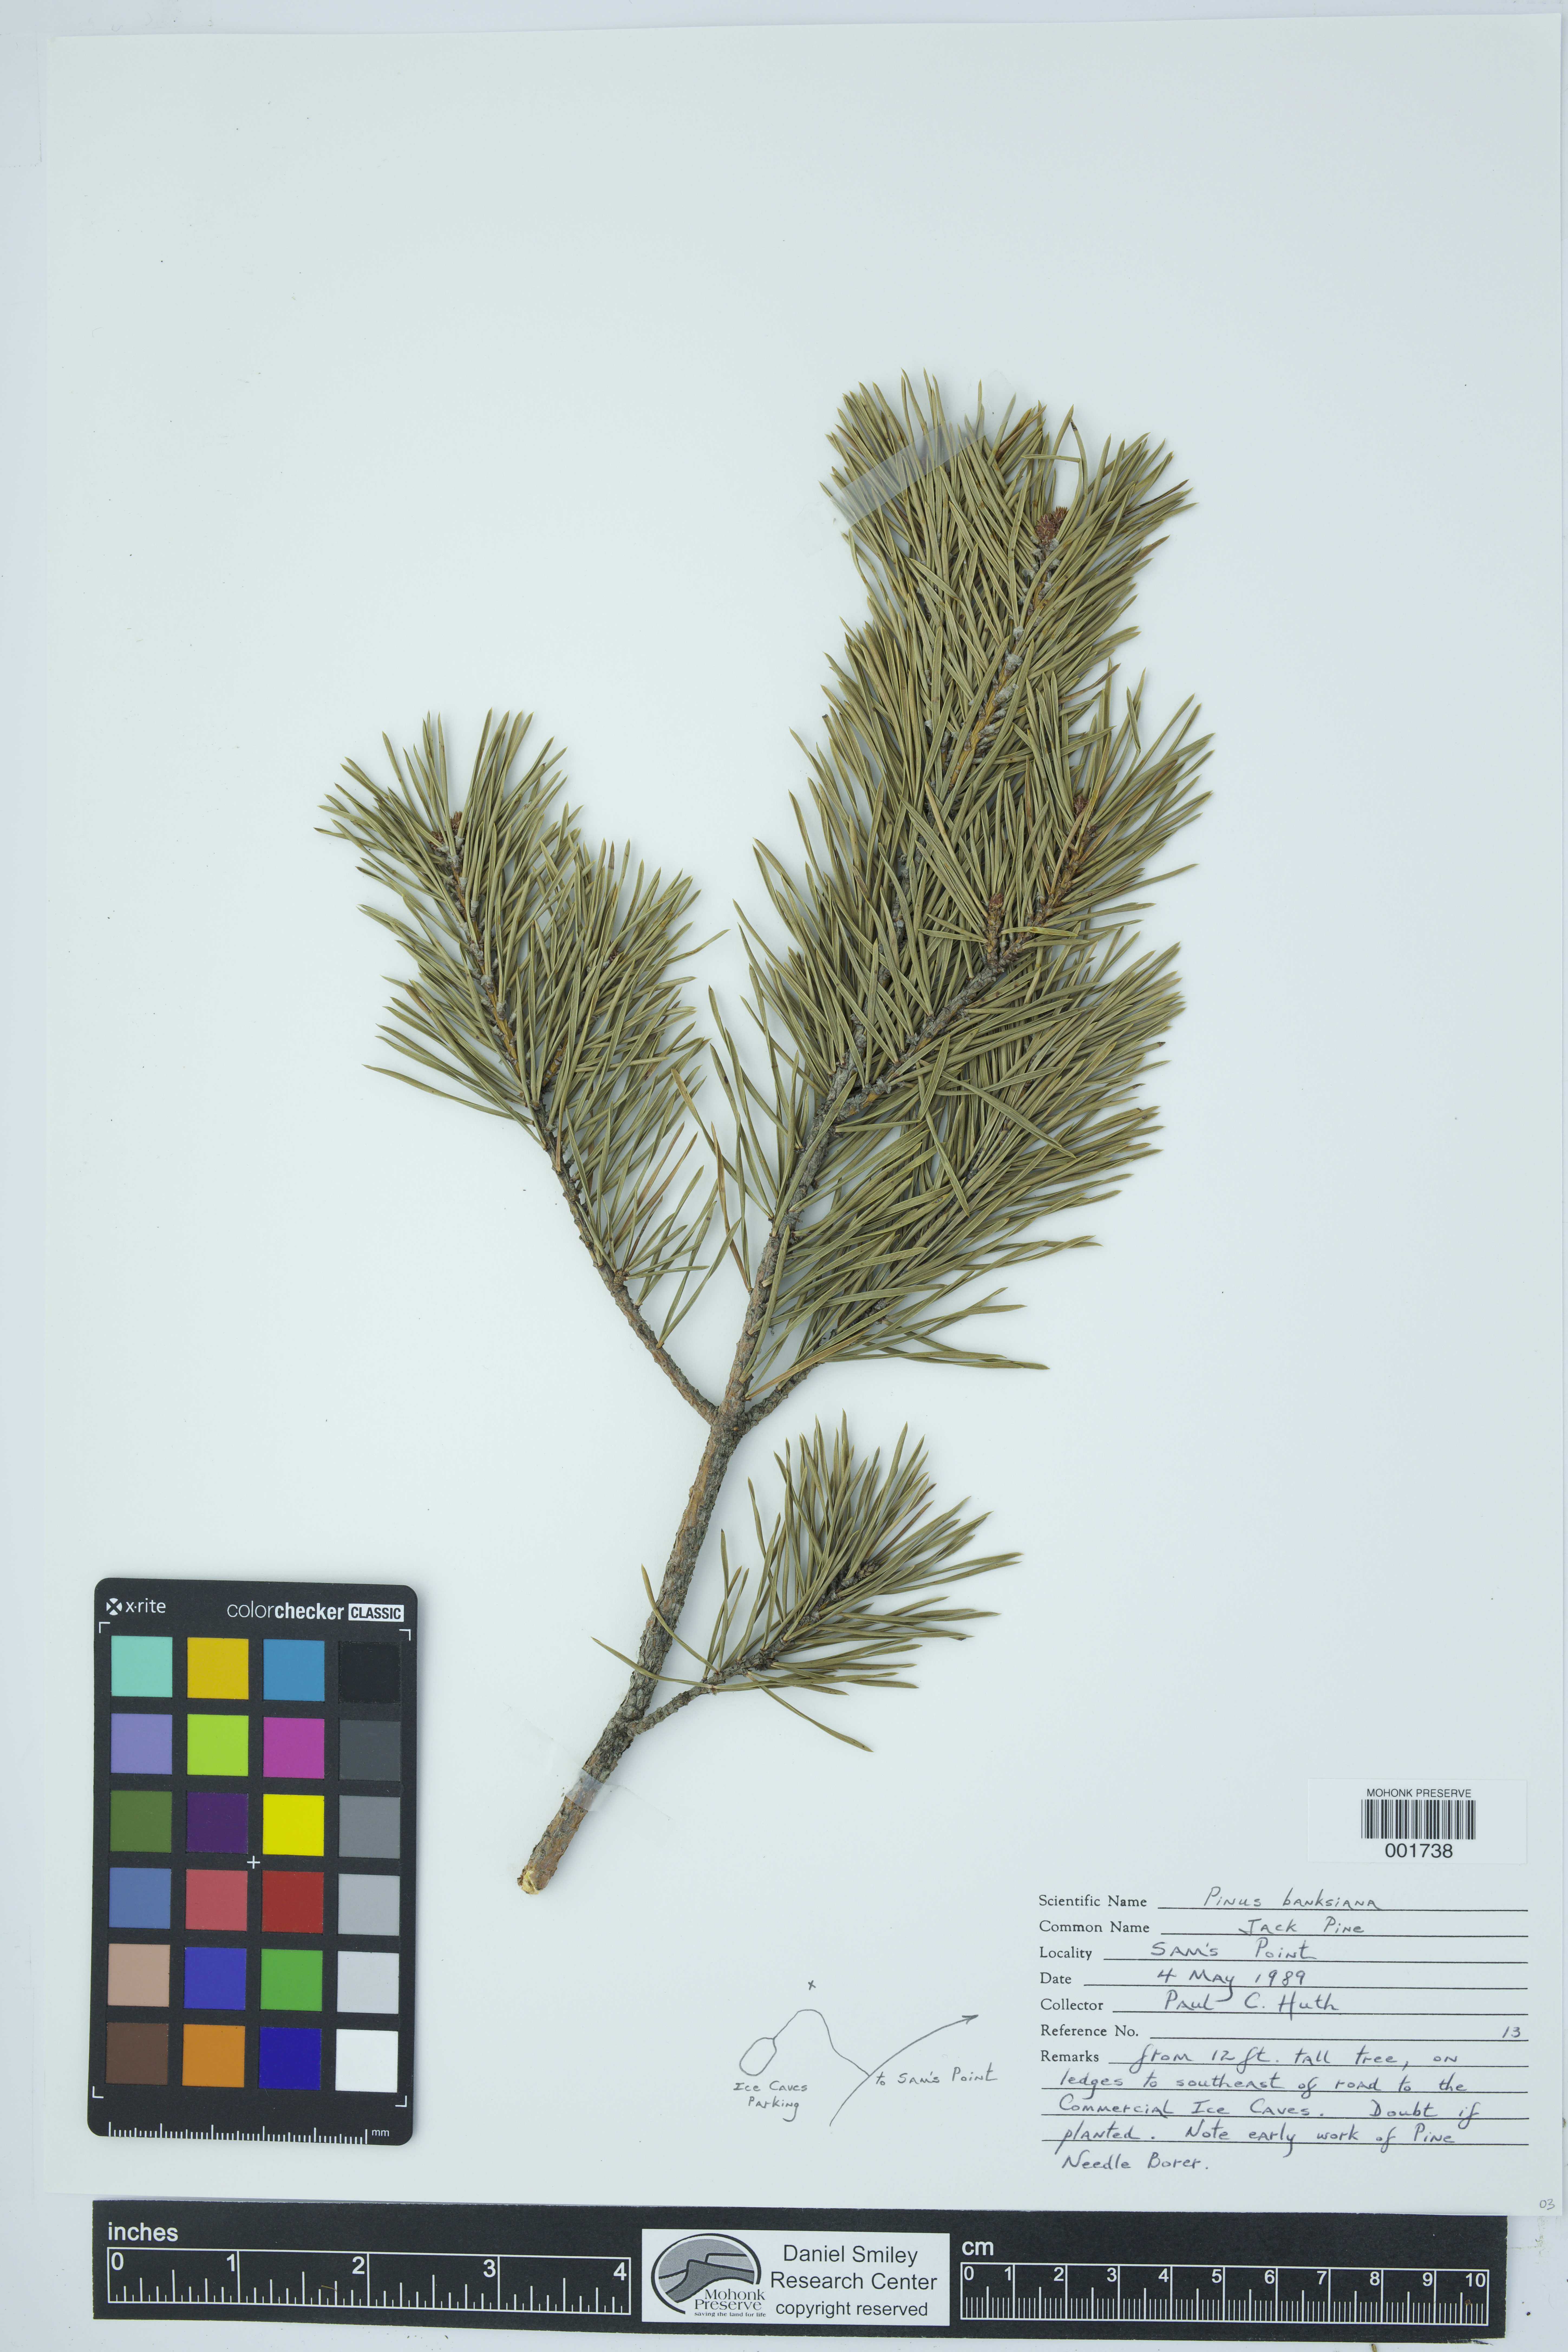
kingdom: Plantae
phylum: Tracheophyta
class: Pinopsida
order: Pinales
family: Pinaceae
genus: Pinus
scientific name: Pinus banksiana
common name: Jack pine
